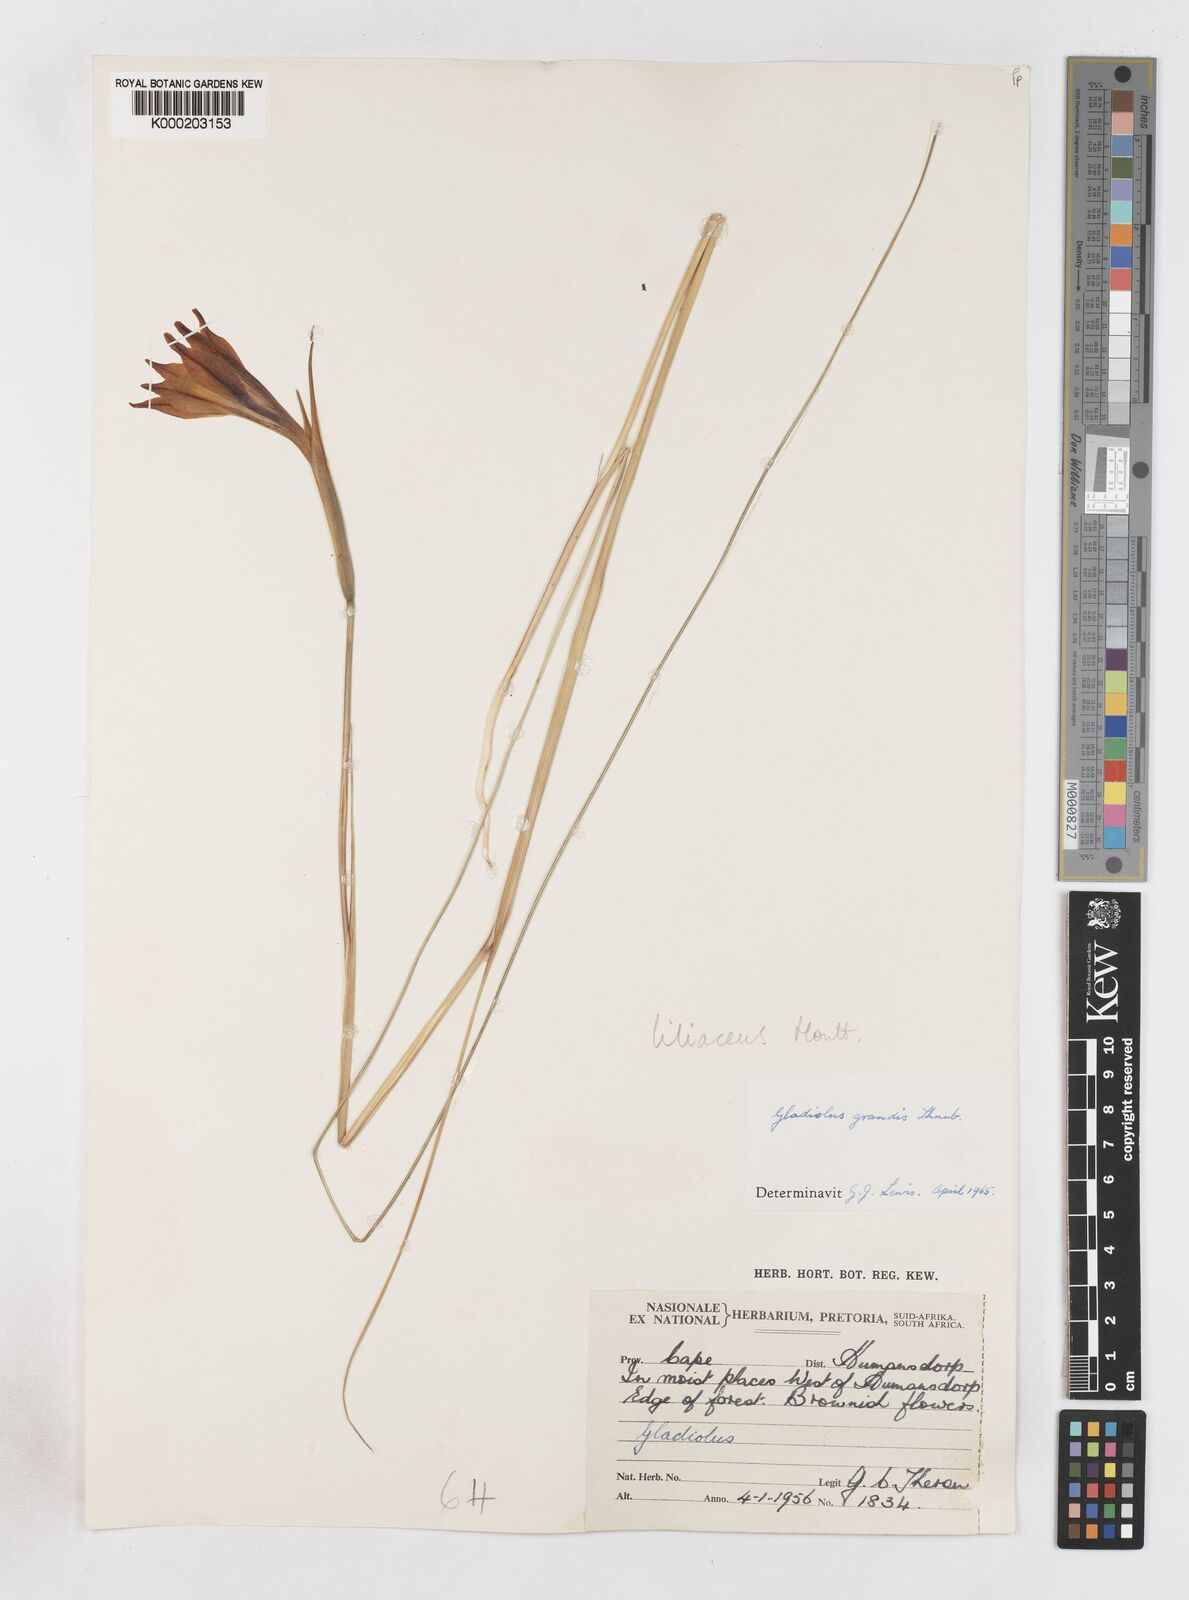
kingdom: Plantae
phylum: Tracheophyta
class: Liliopsida
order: Asparagales
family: Iridaceae
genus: Gladiolus
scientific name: Gladiolus liliaceus
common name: Large brown afrikaner
